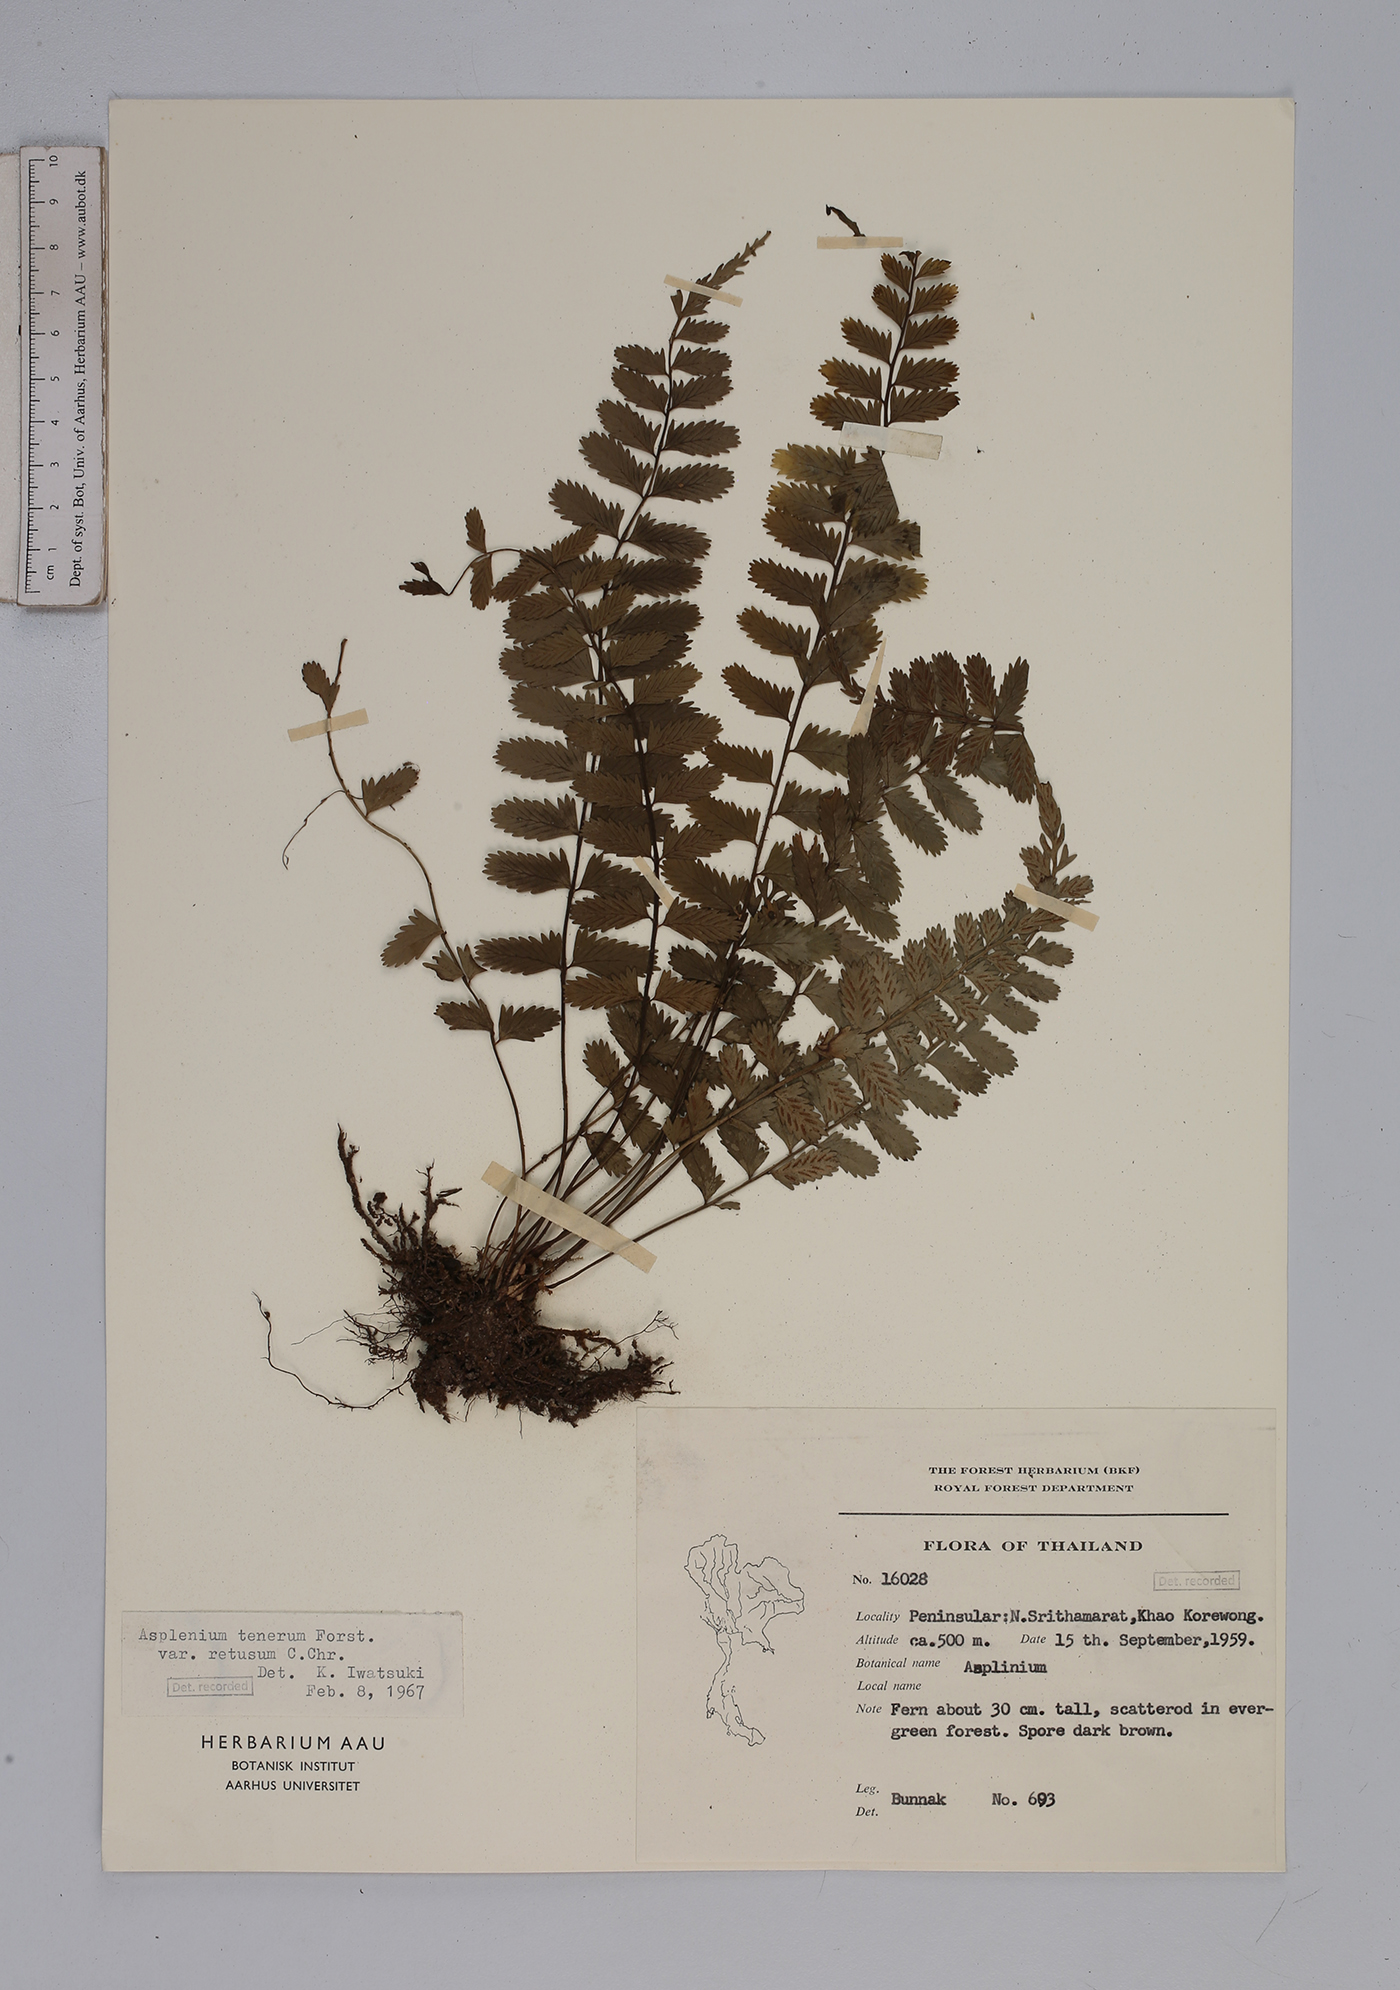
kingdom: Plantae
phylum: Tracheophyta
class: Polypodiopsida
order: Polypodiales
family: Aspleniaceae
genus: Asplenium
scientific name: Asplenium tenerum
